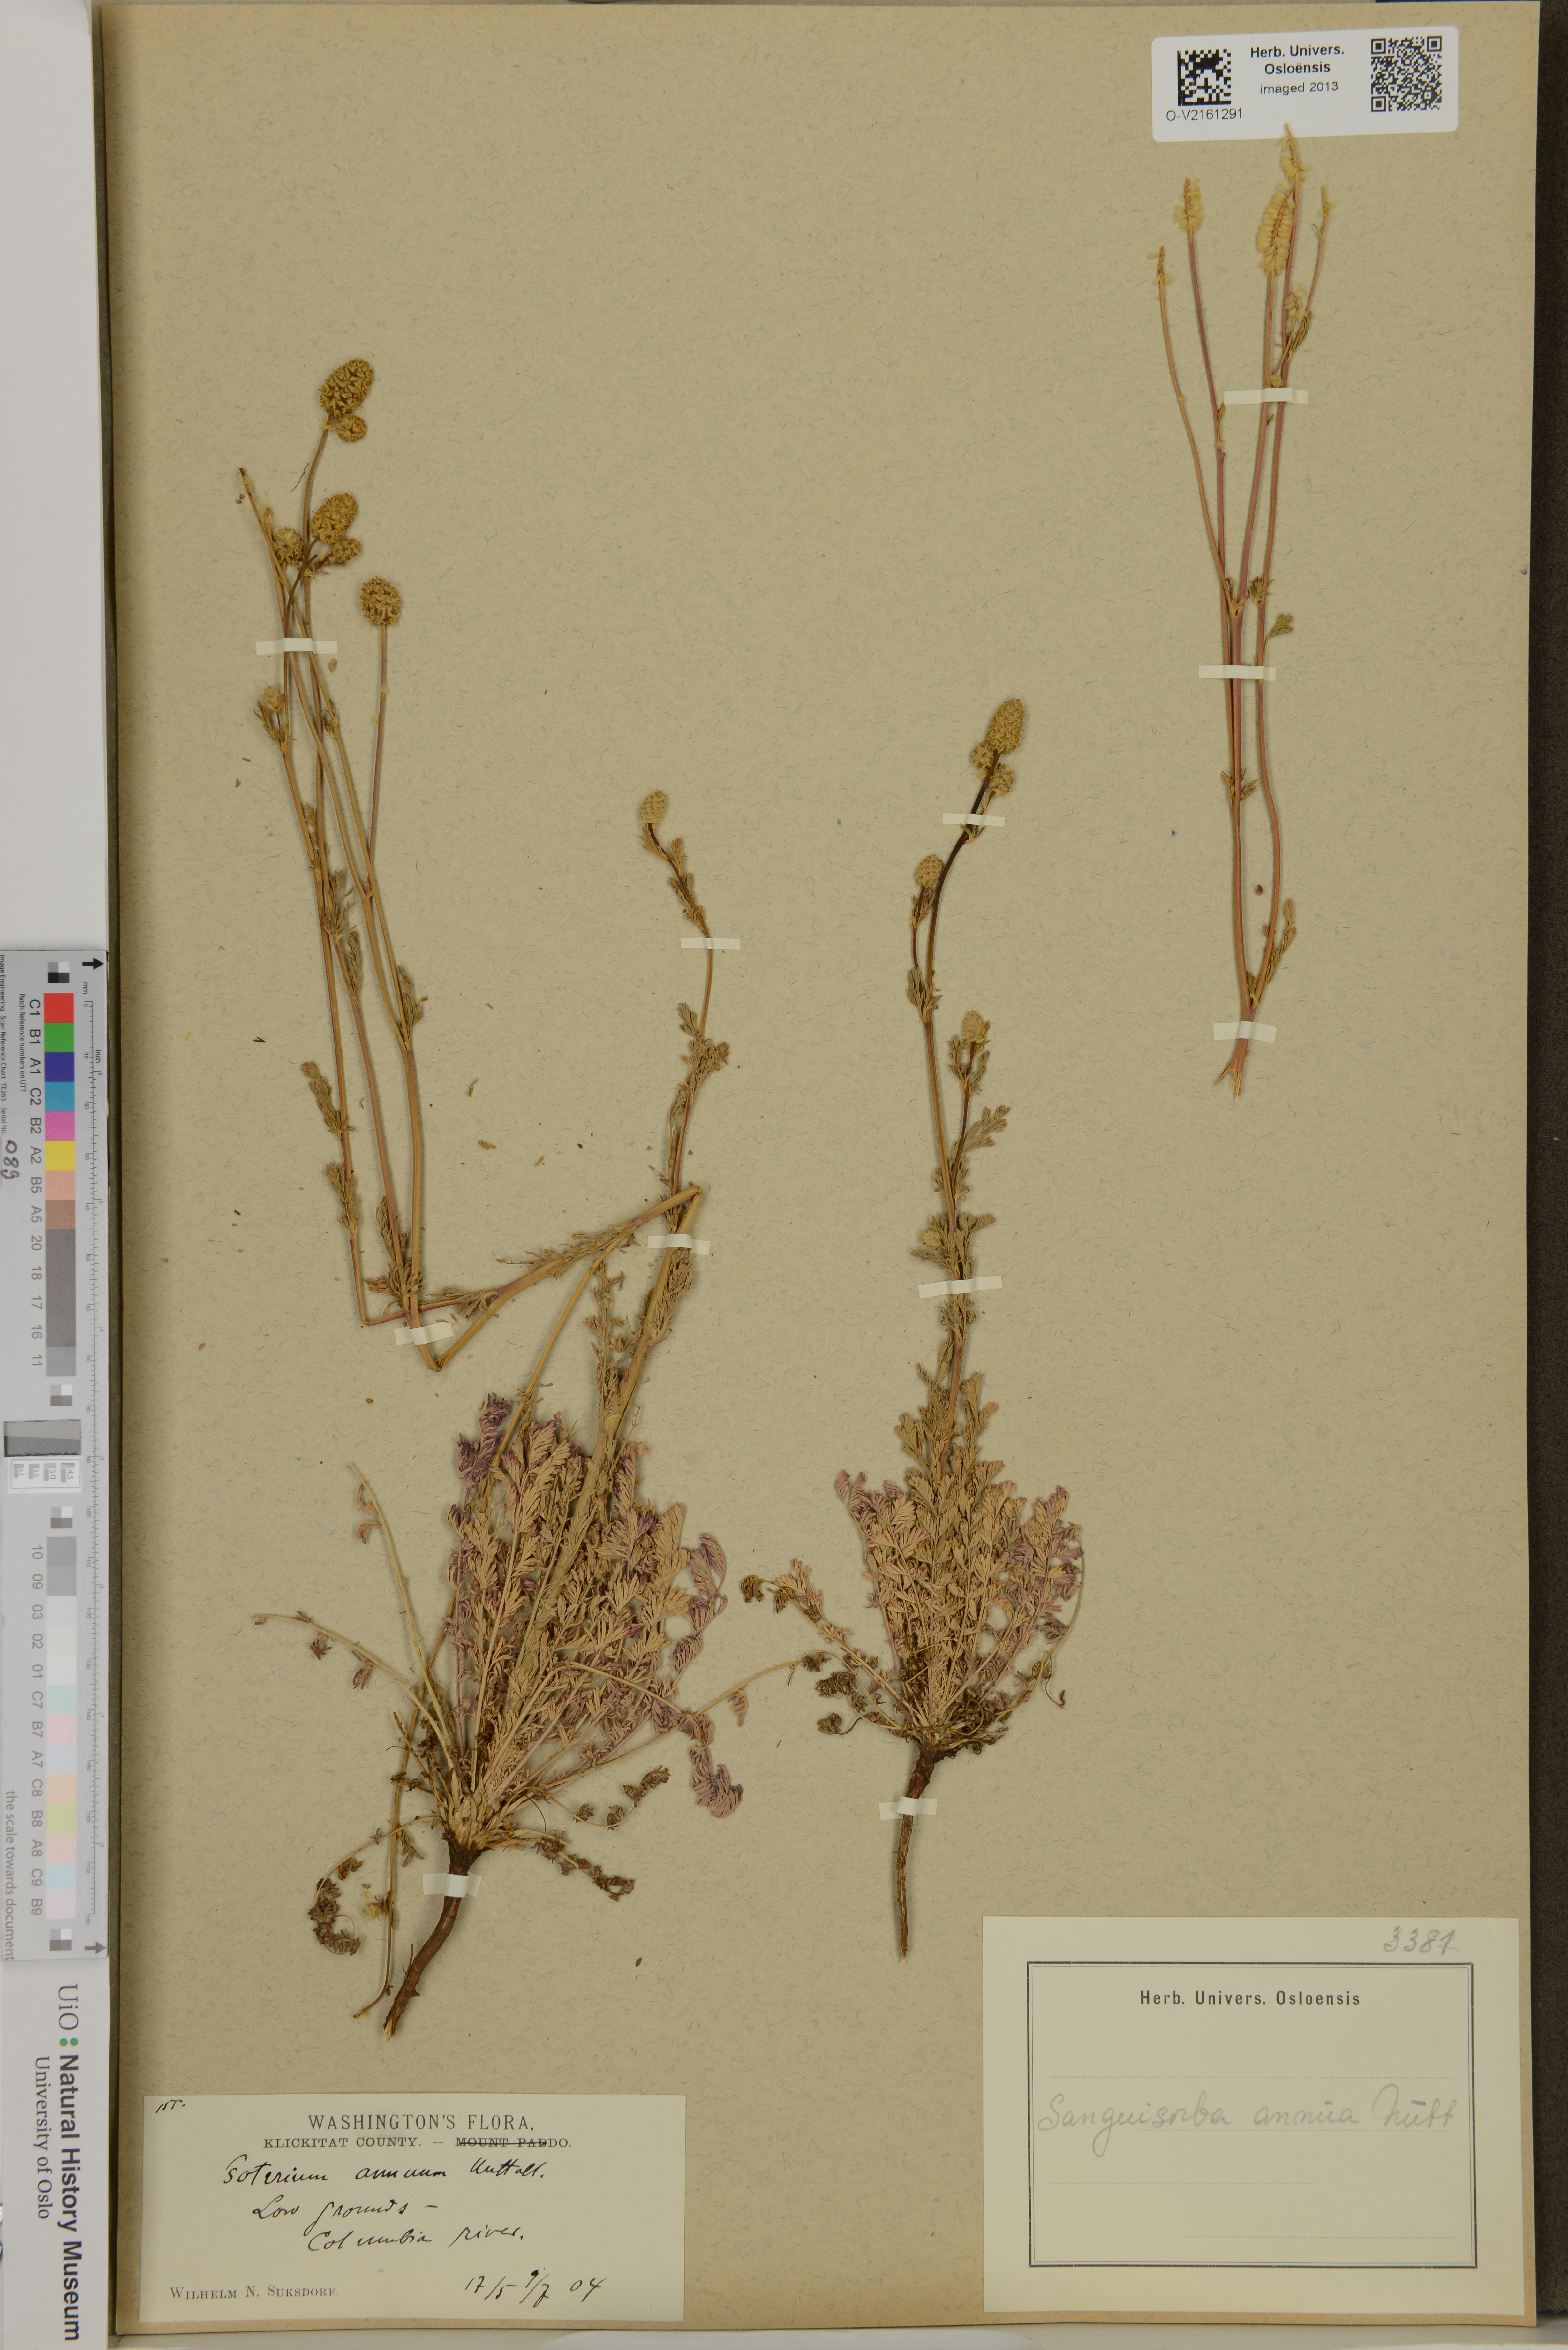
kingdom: Plantae
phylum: Tracheophyta
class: Magnoliopsida
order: Rosales
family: Rosaceae
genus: Poteridium
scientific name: Poteridium annuum
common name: Annual burnet
